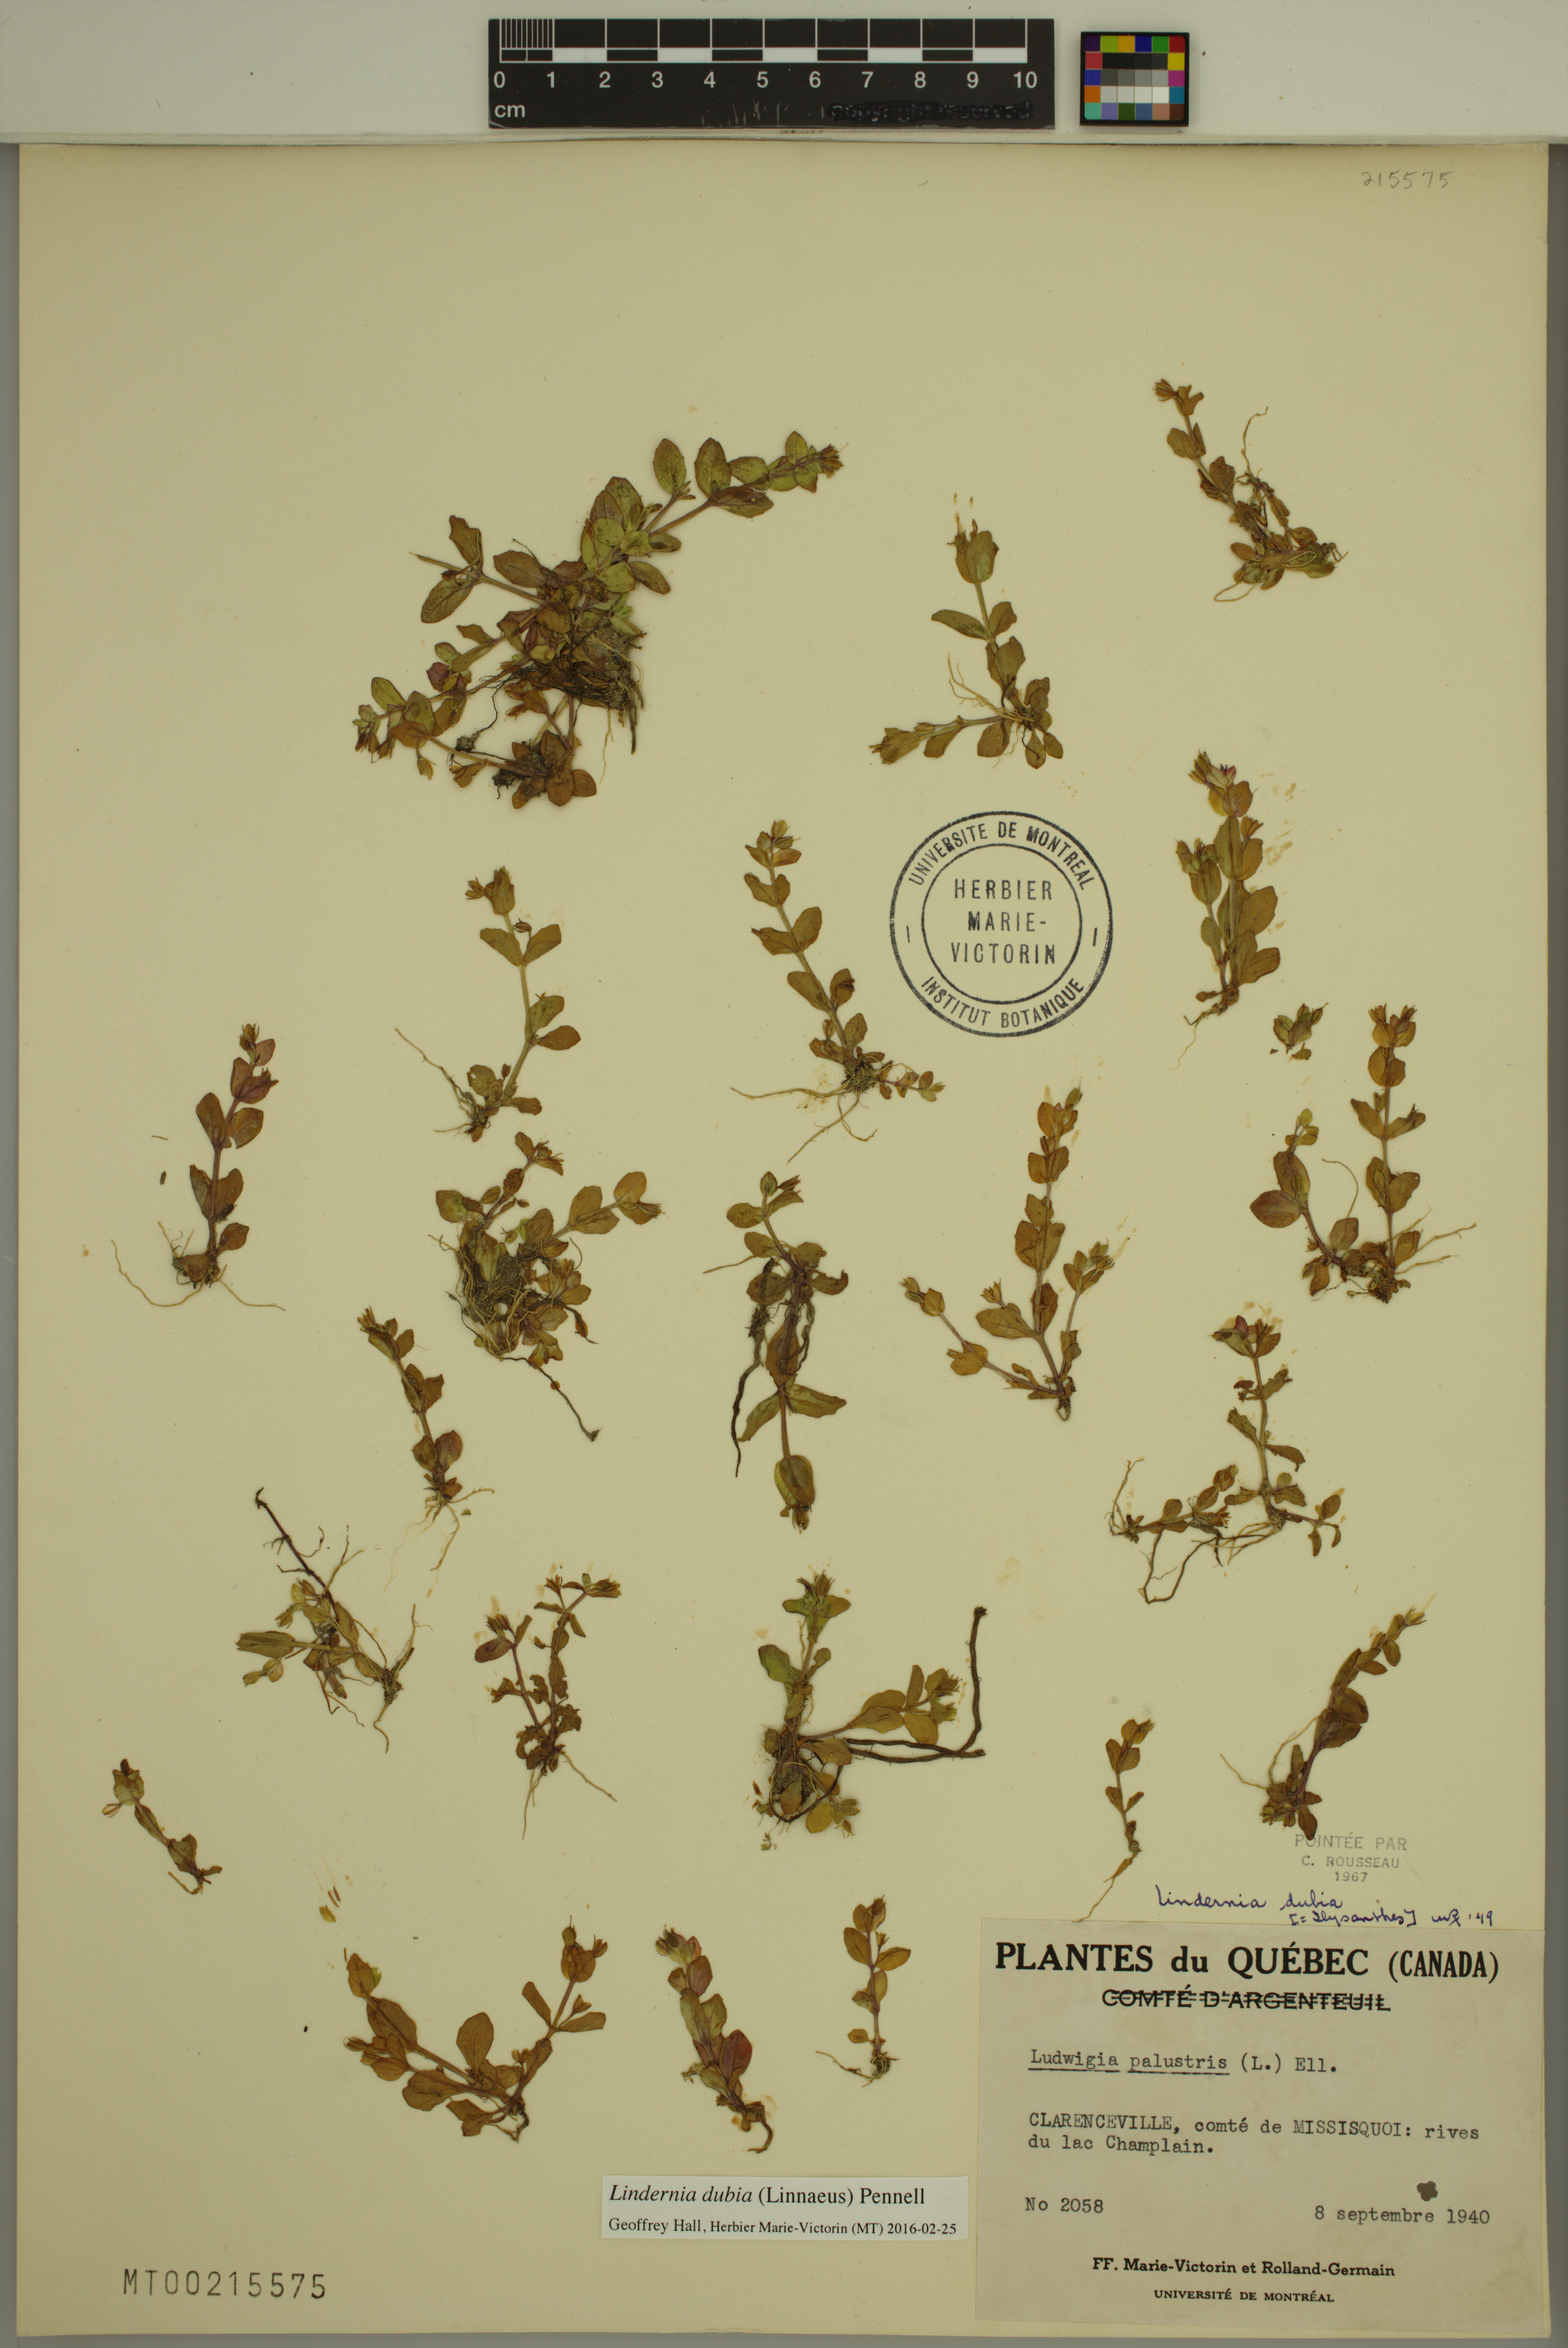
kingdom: Plantae
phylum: Tracheophyta
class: Magnoliopsida
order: Lamiales
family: Linderniaceae
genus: Lindernia
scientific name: Lindernia dubia
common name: Annual false pimpernel
